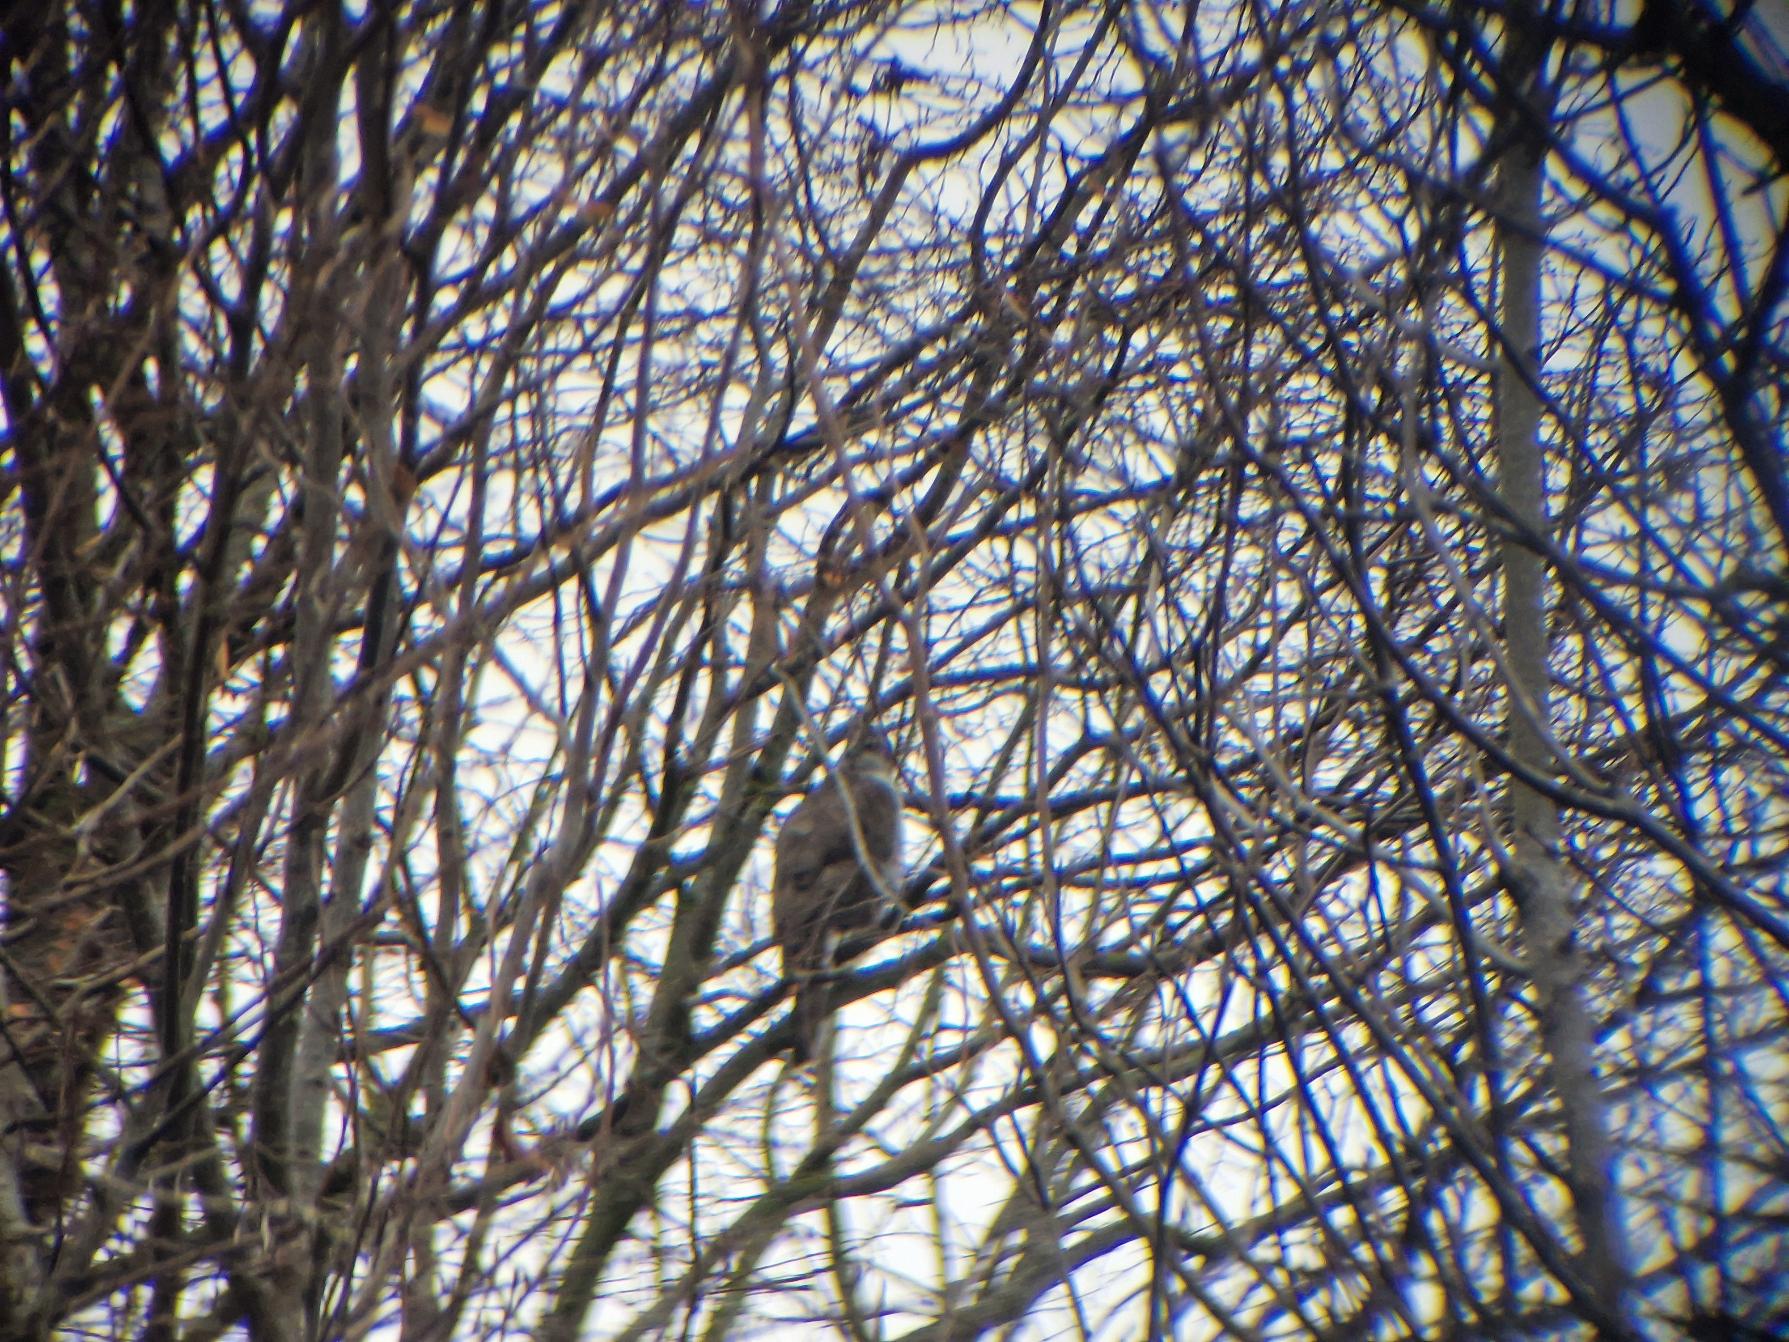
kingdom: Animalia
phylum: Chordata
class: Aves
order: Accipitriformes
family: Accipitridae
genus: Accipiter
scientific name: Accipiter nisus
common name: Spurvehøg
